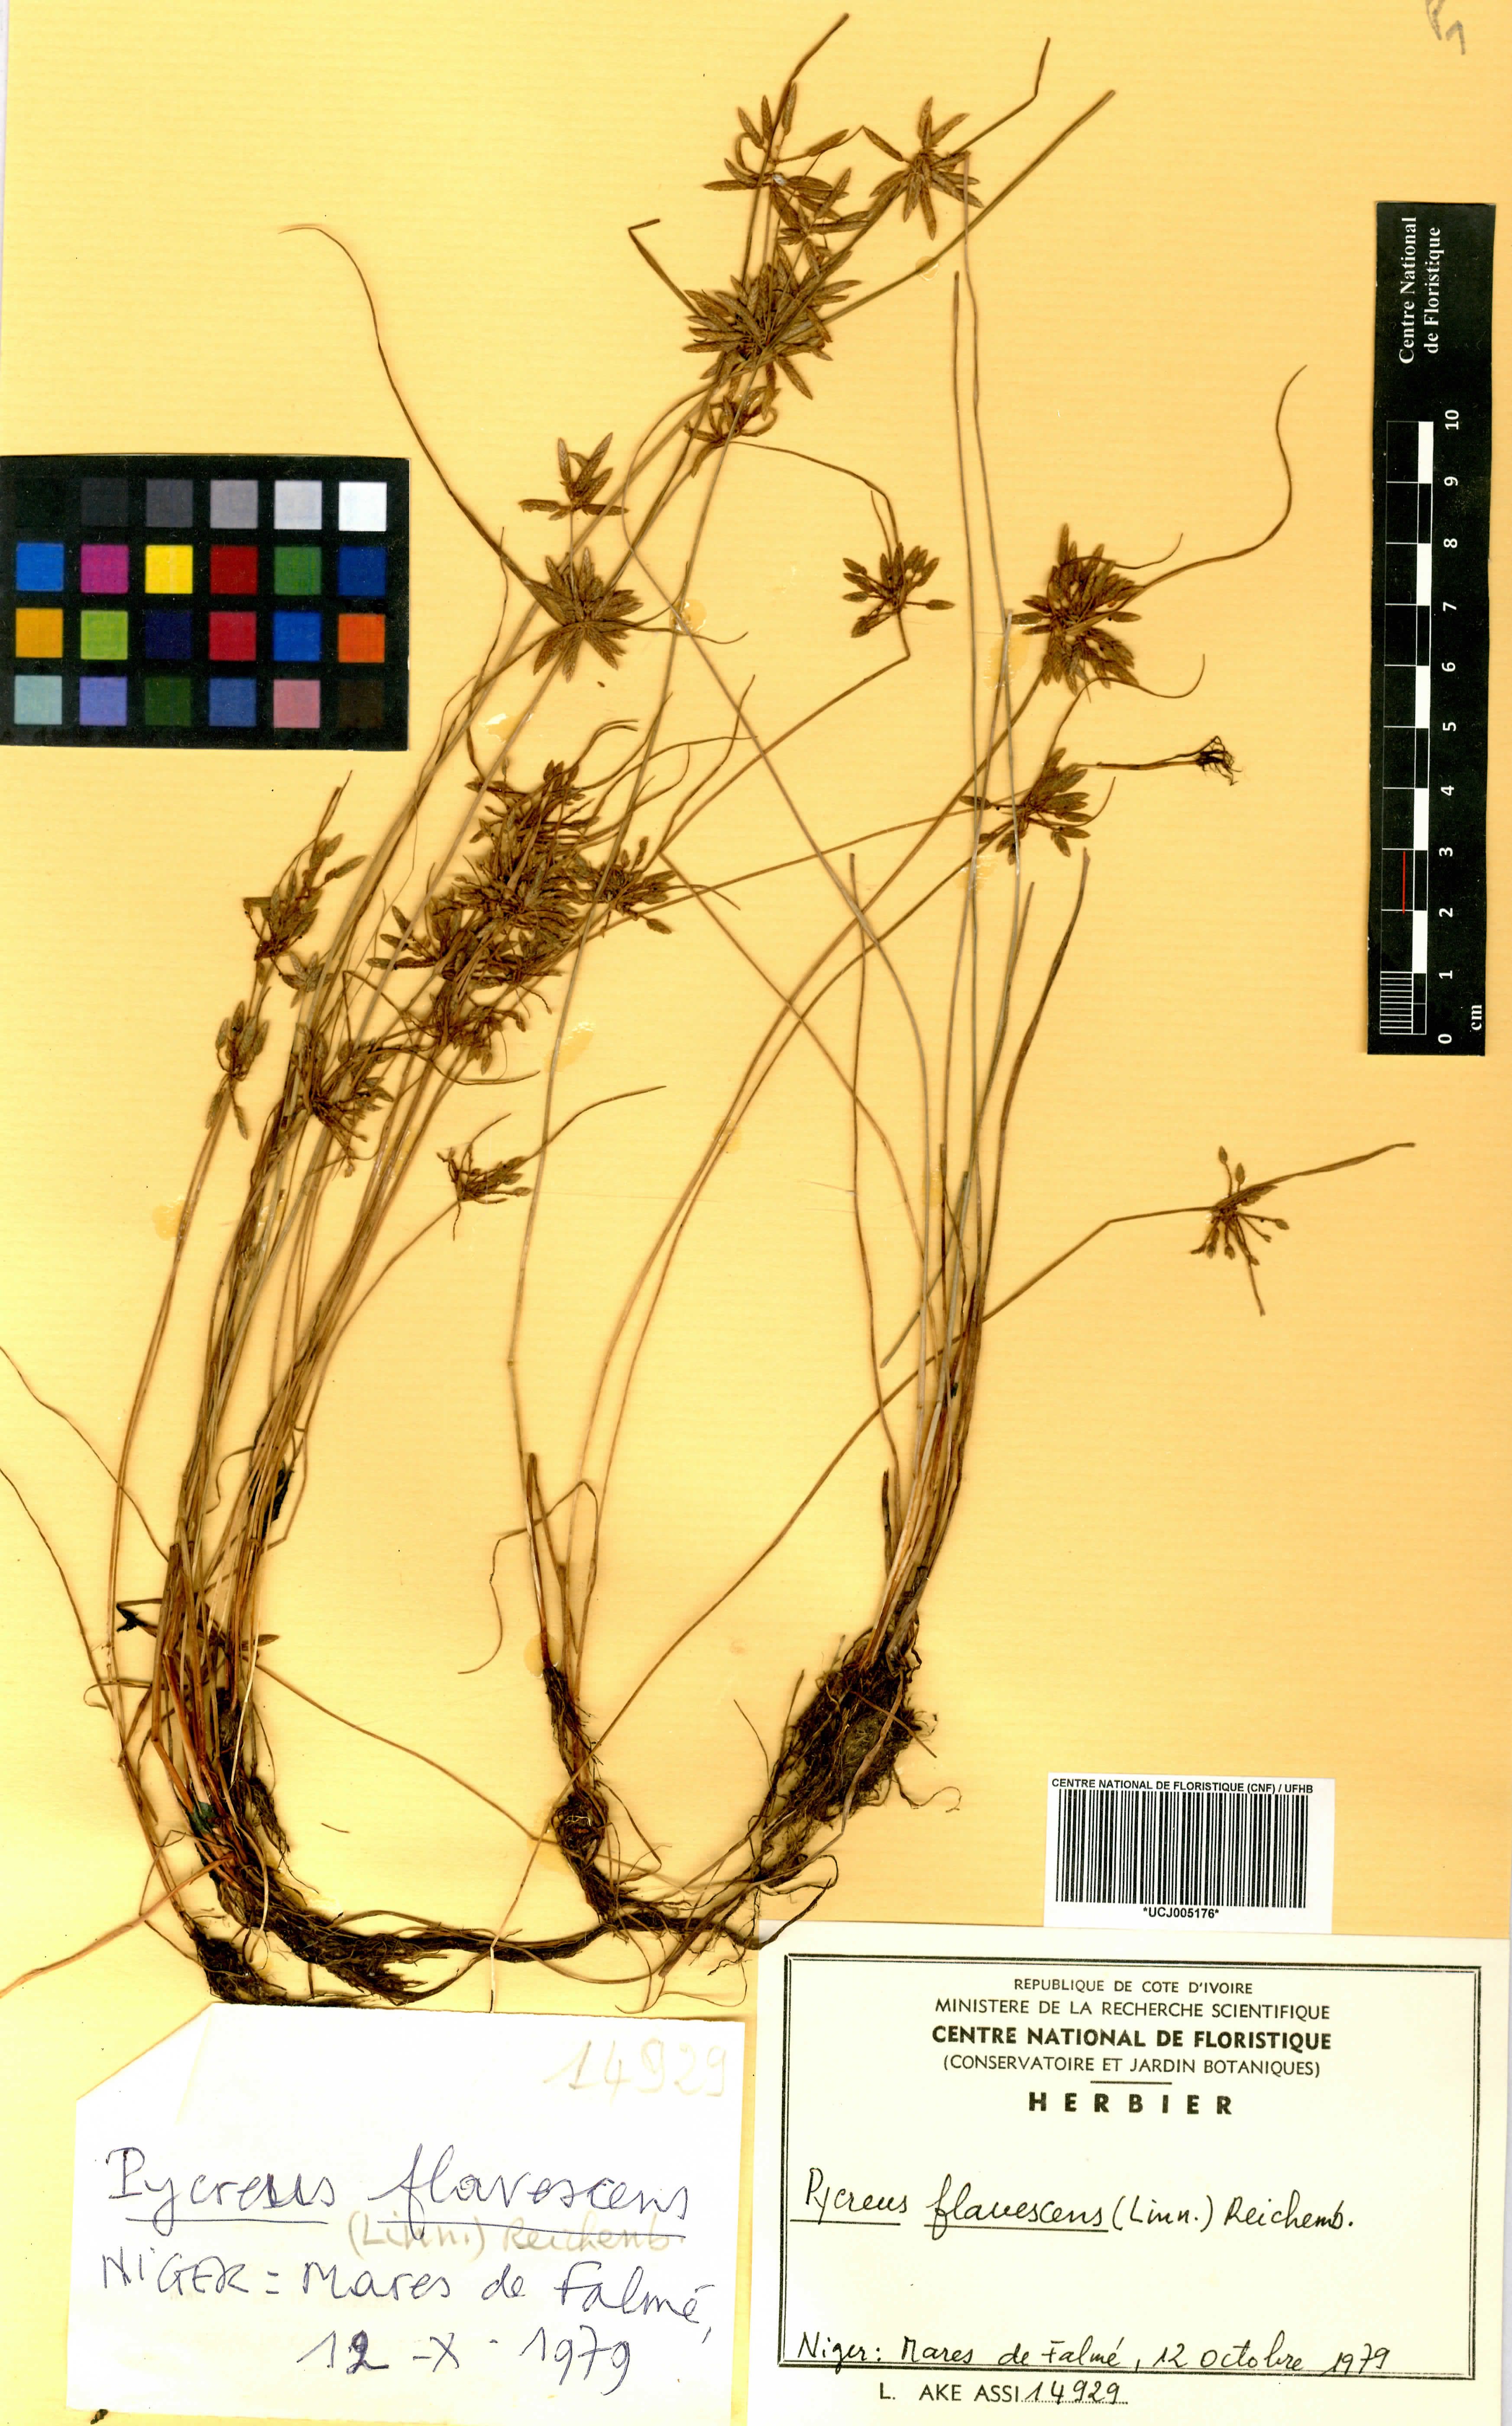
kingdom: Plantae
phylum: Tracheophyta
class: Liliopsida
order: Poales
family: Cyperaceae
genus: Cyperus
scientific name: Cyperus flavescens
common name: Yellow galingale
